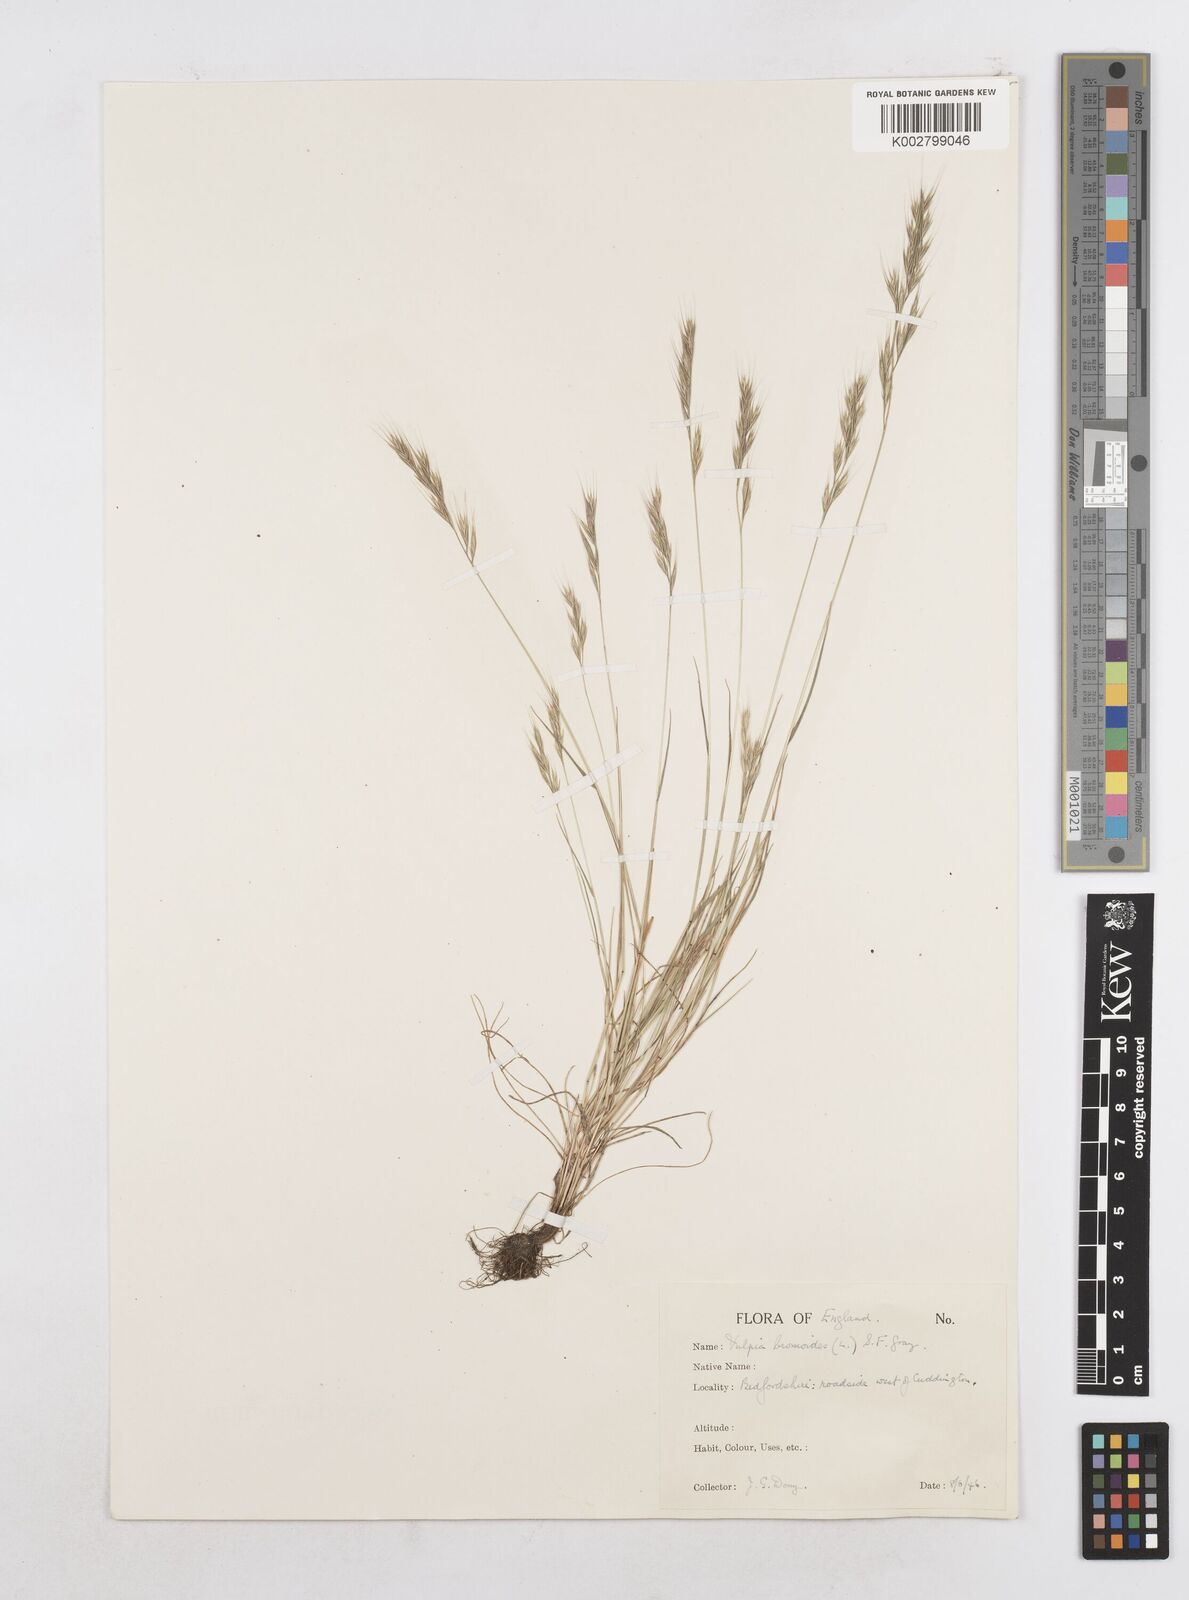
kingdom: Plantae
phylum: Tracheophyta
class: Liliopsida
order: Poales
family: Poaceae
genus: Festuca
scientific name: Festuca bromoides
